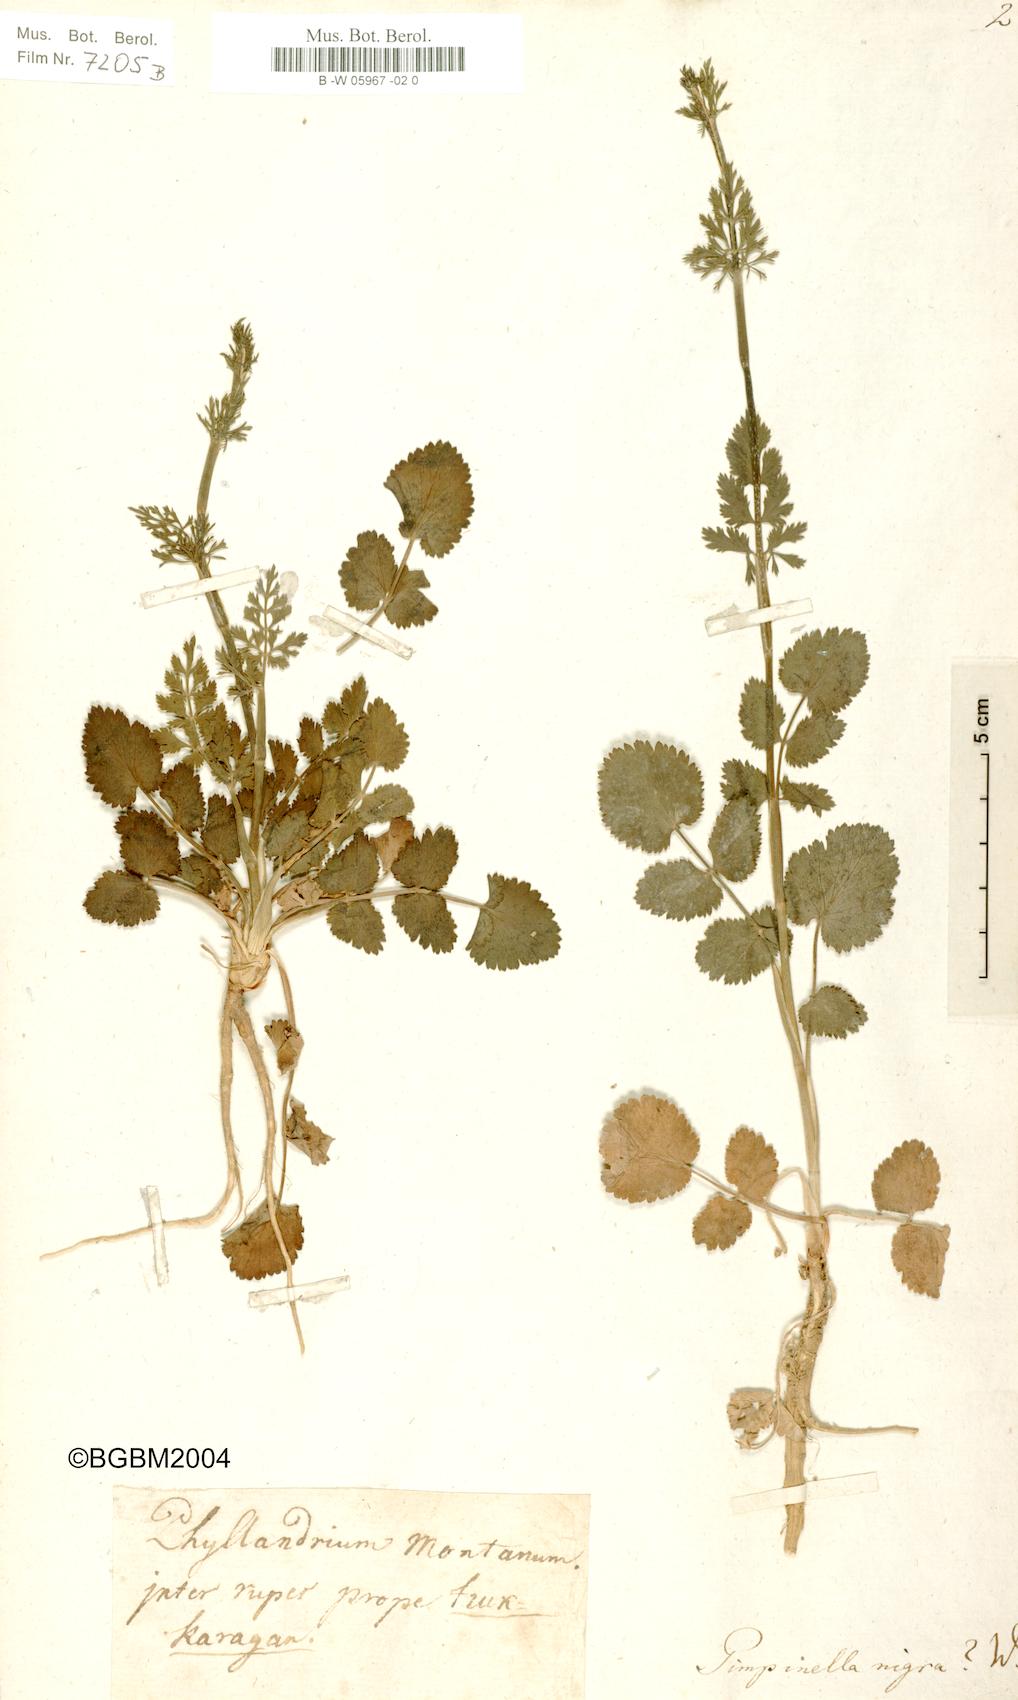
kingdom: Plantae
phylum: Tracheophyta
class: Magnoliopsida
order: Apiales
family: Apiaceae
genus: Pimpinella
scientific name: Pimpinella nigra
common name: Black pimpinella
